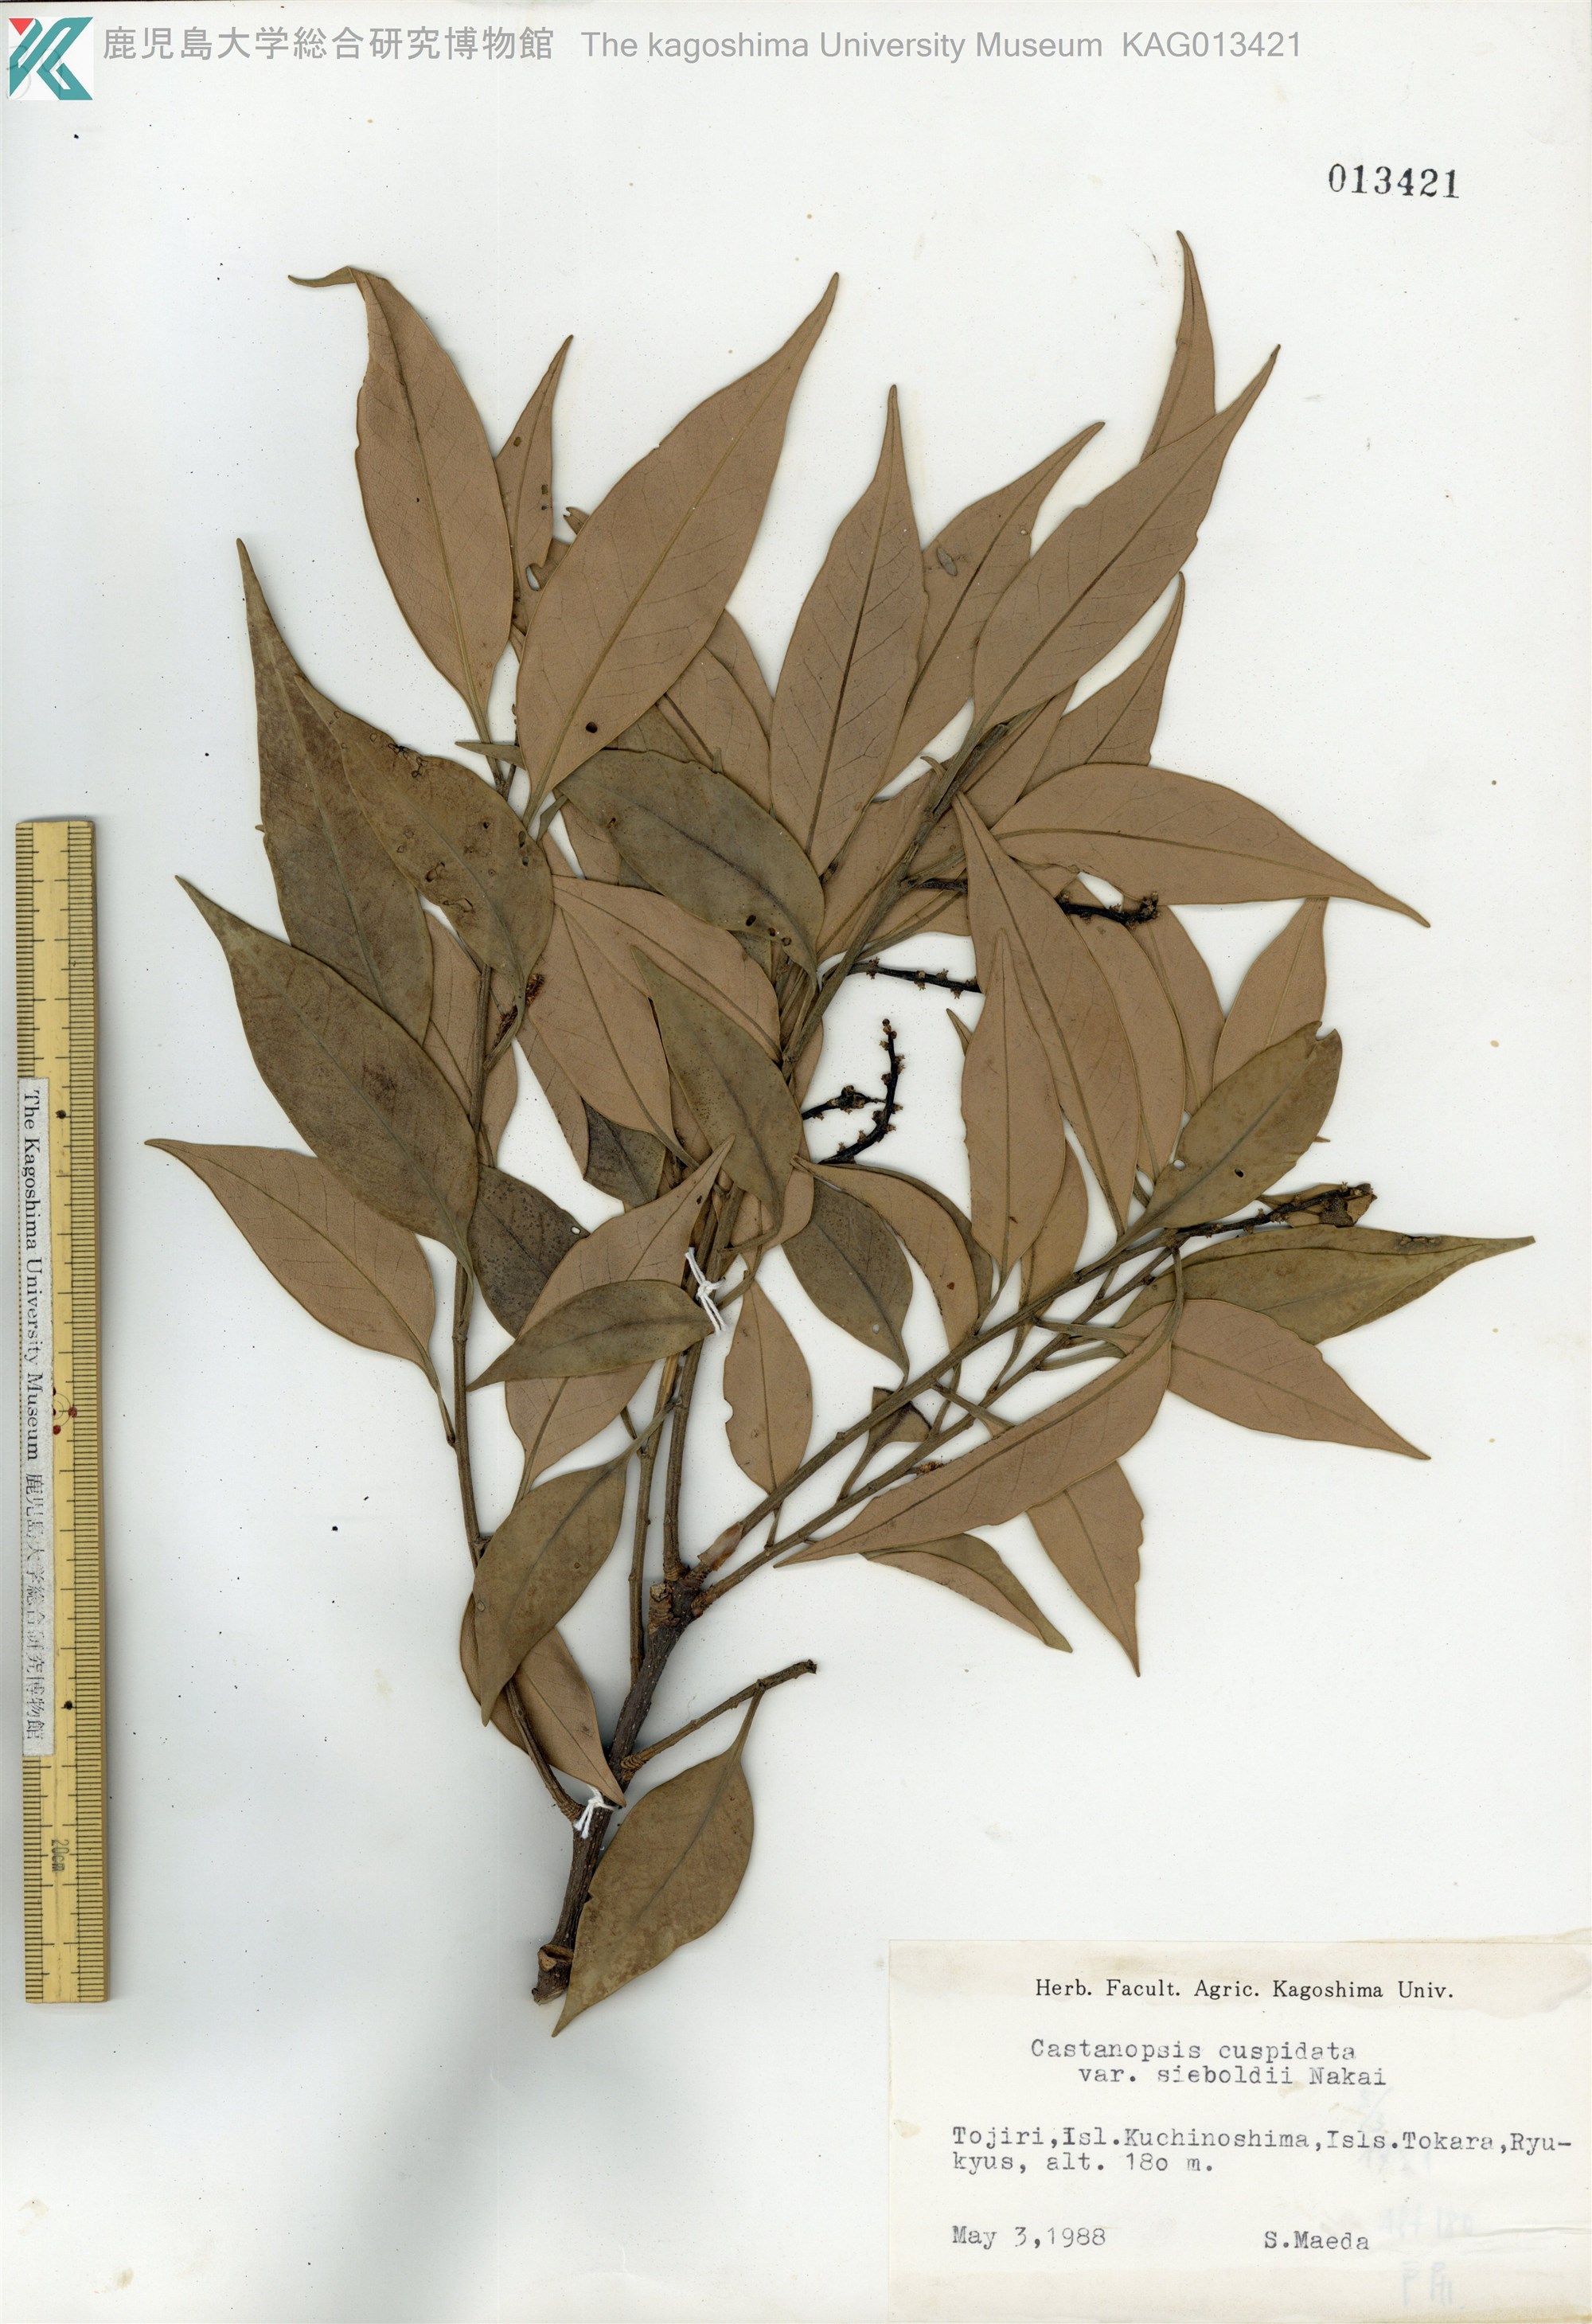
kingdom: Plantae
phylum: Tracheophyta
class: Magnoliopsida
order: Fagales
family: Fagaceae
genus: Castanopsis
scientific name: Castanopsis sieboldii
